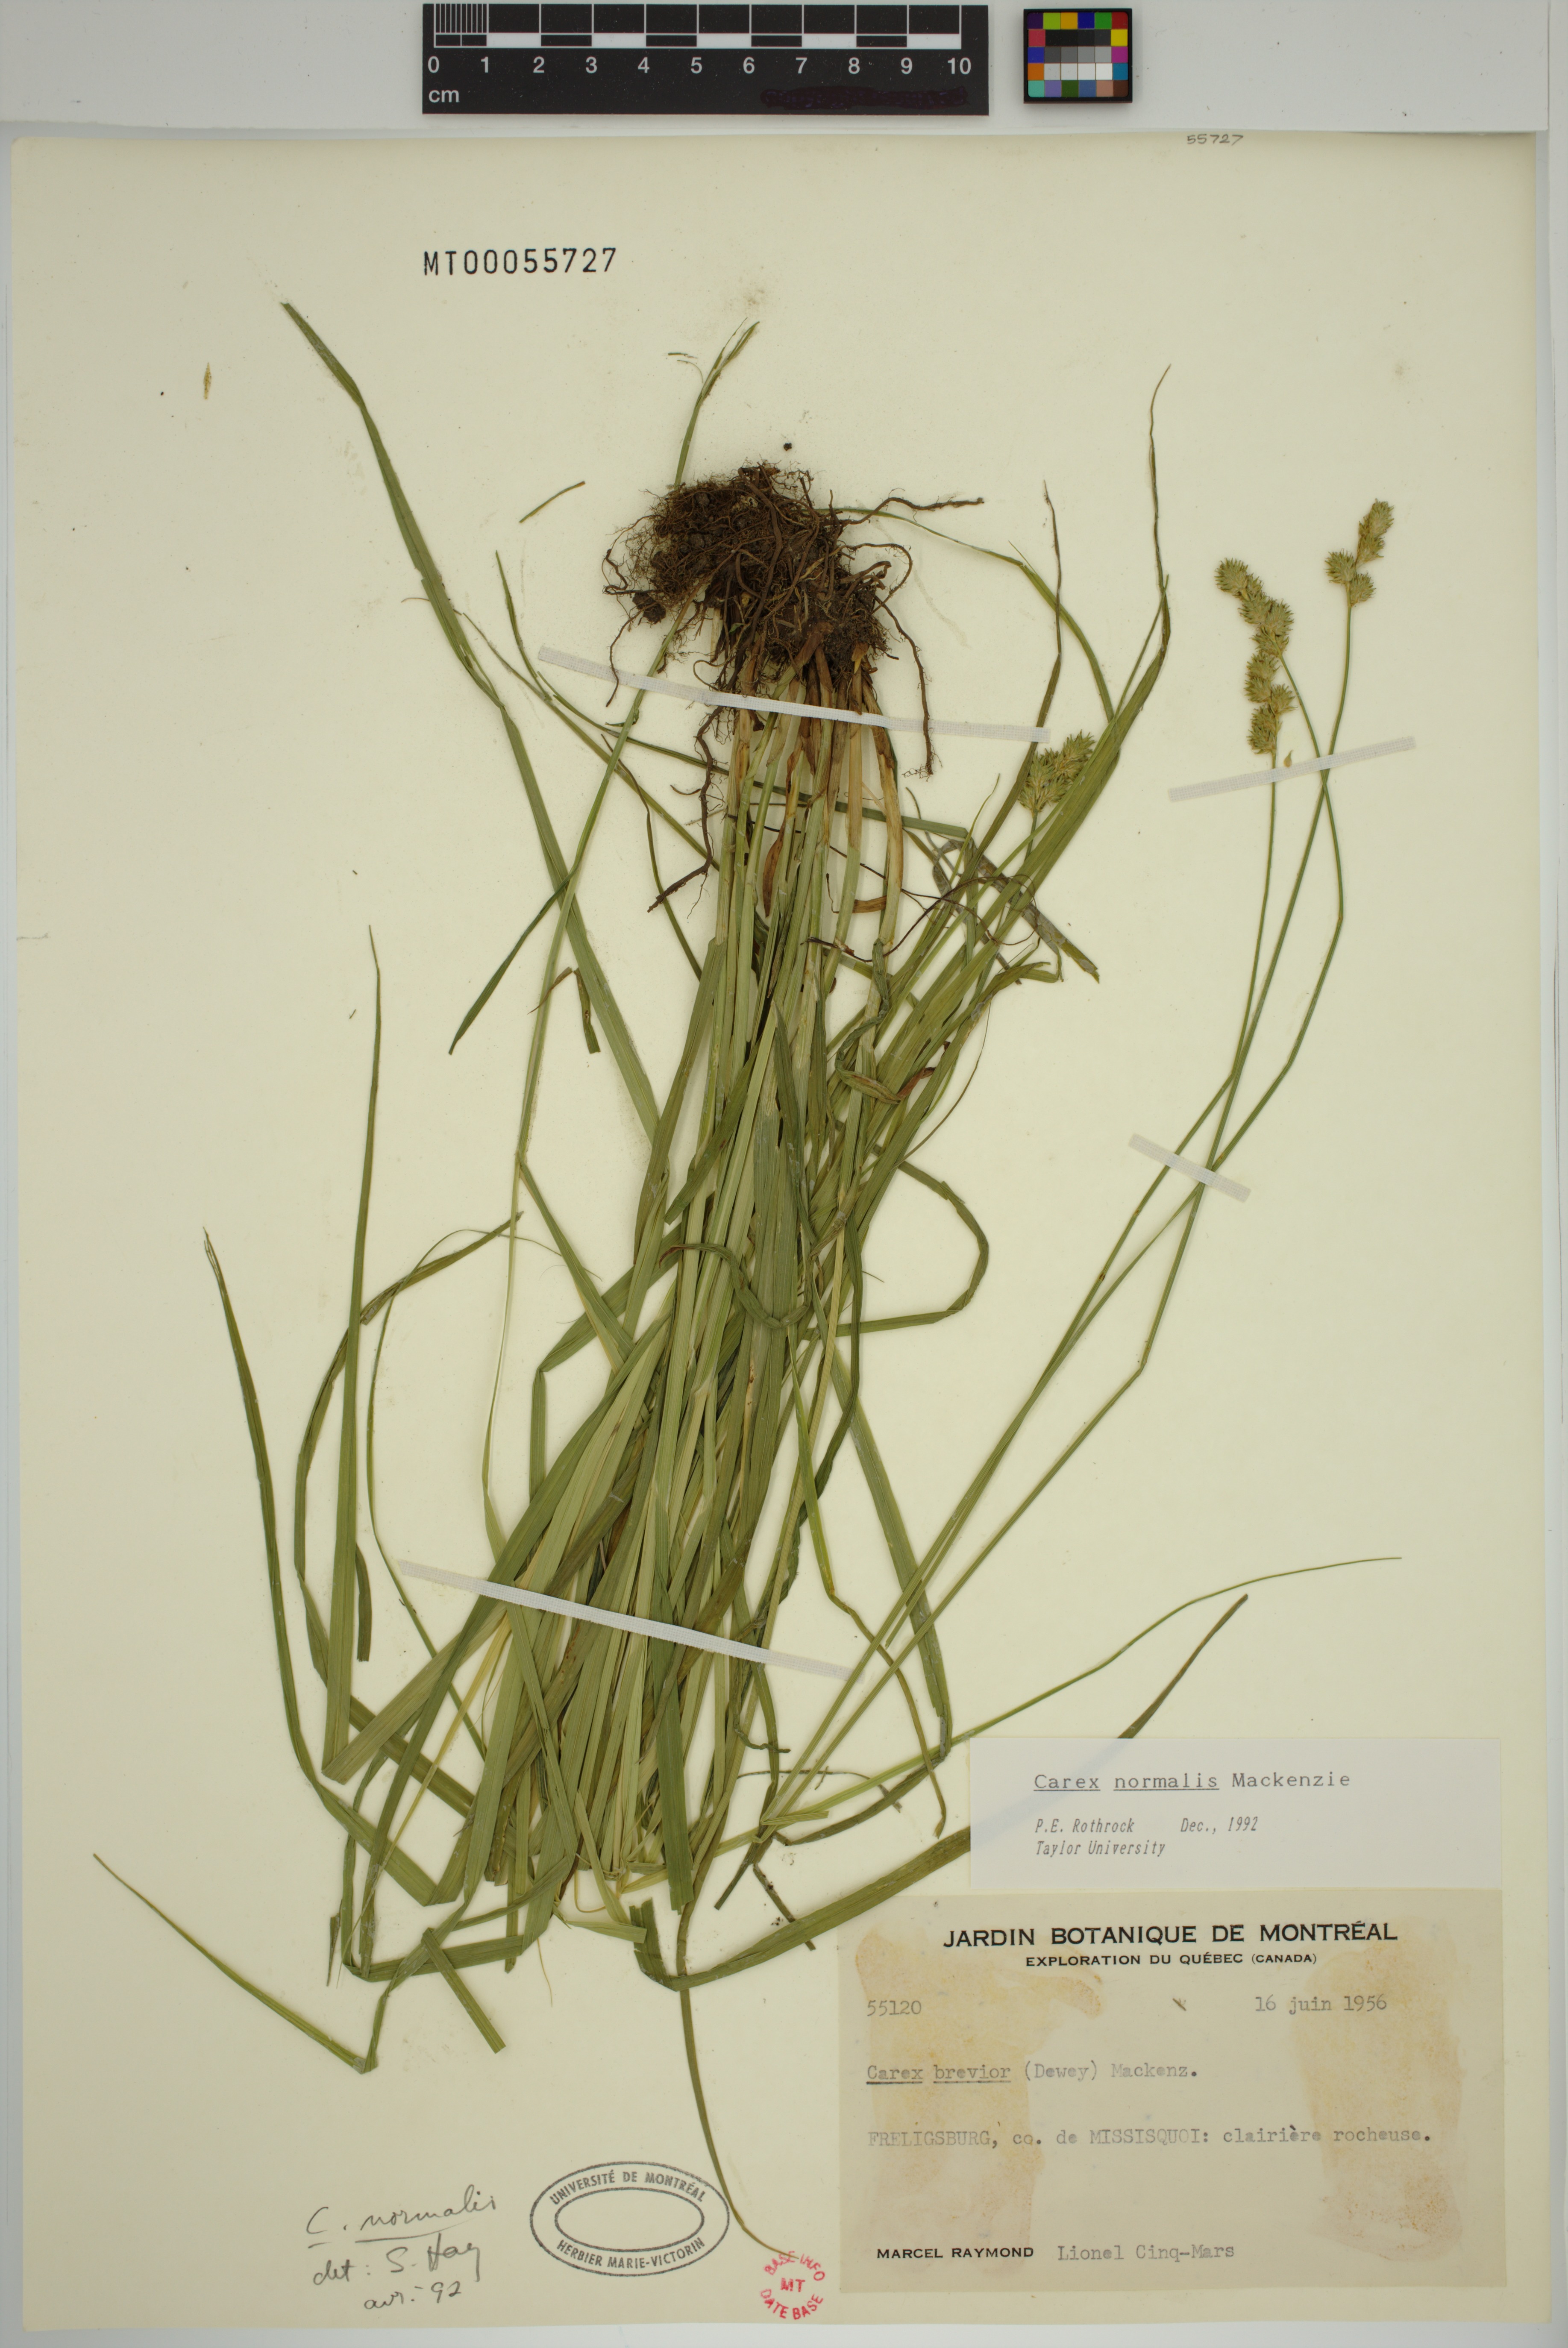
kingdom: Plantae
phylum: Tracheophyta
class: Liliopsida
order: Poales
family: Cyperaceae
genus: Carex
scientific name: Carex normalis
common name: Greater straw sedge
